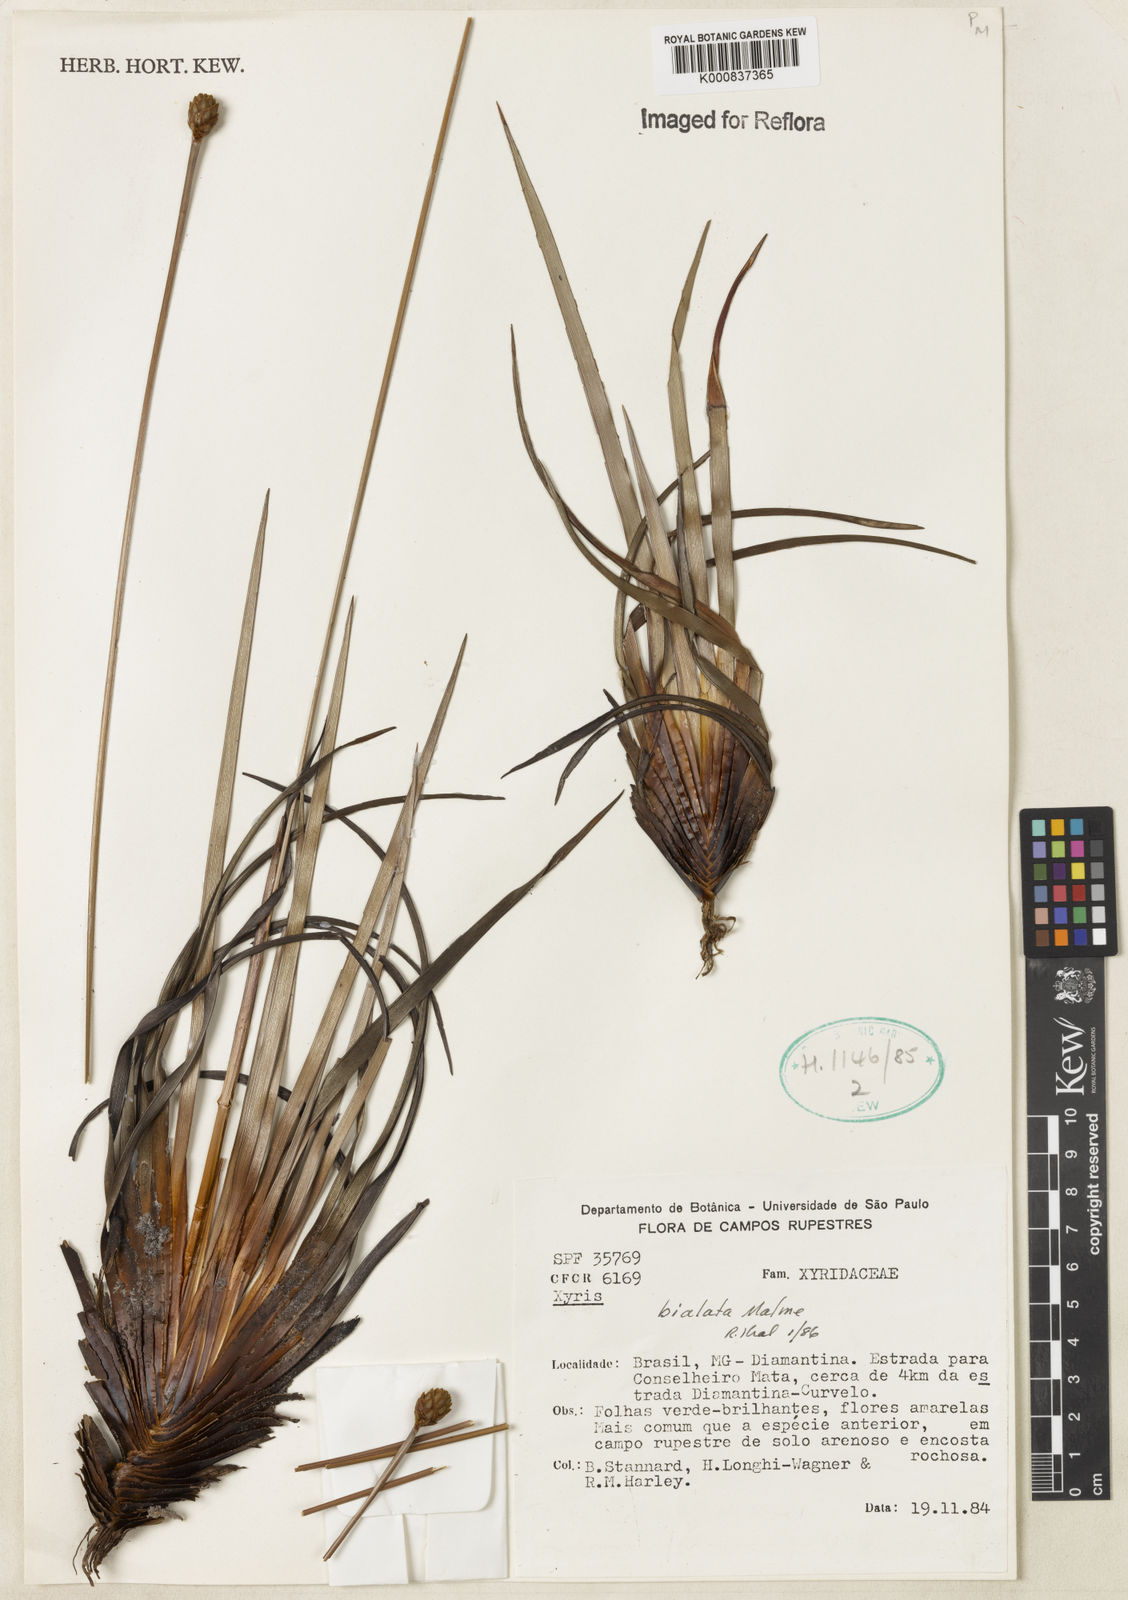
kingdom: Plantae
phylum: Tracheophyta
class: Liliopsida
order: Poales
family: Xyridaceae
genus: Xyris
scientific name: Xyris bialata
